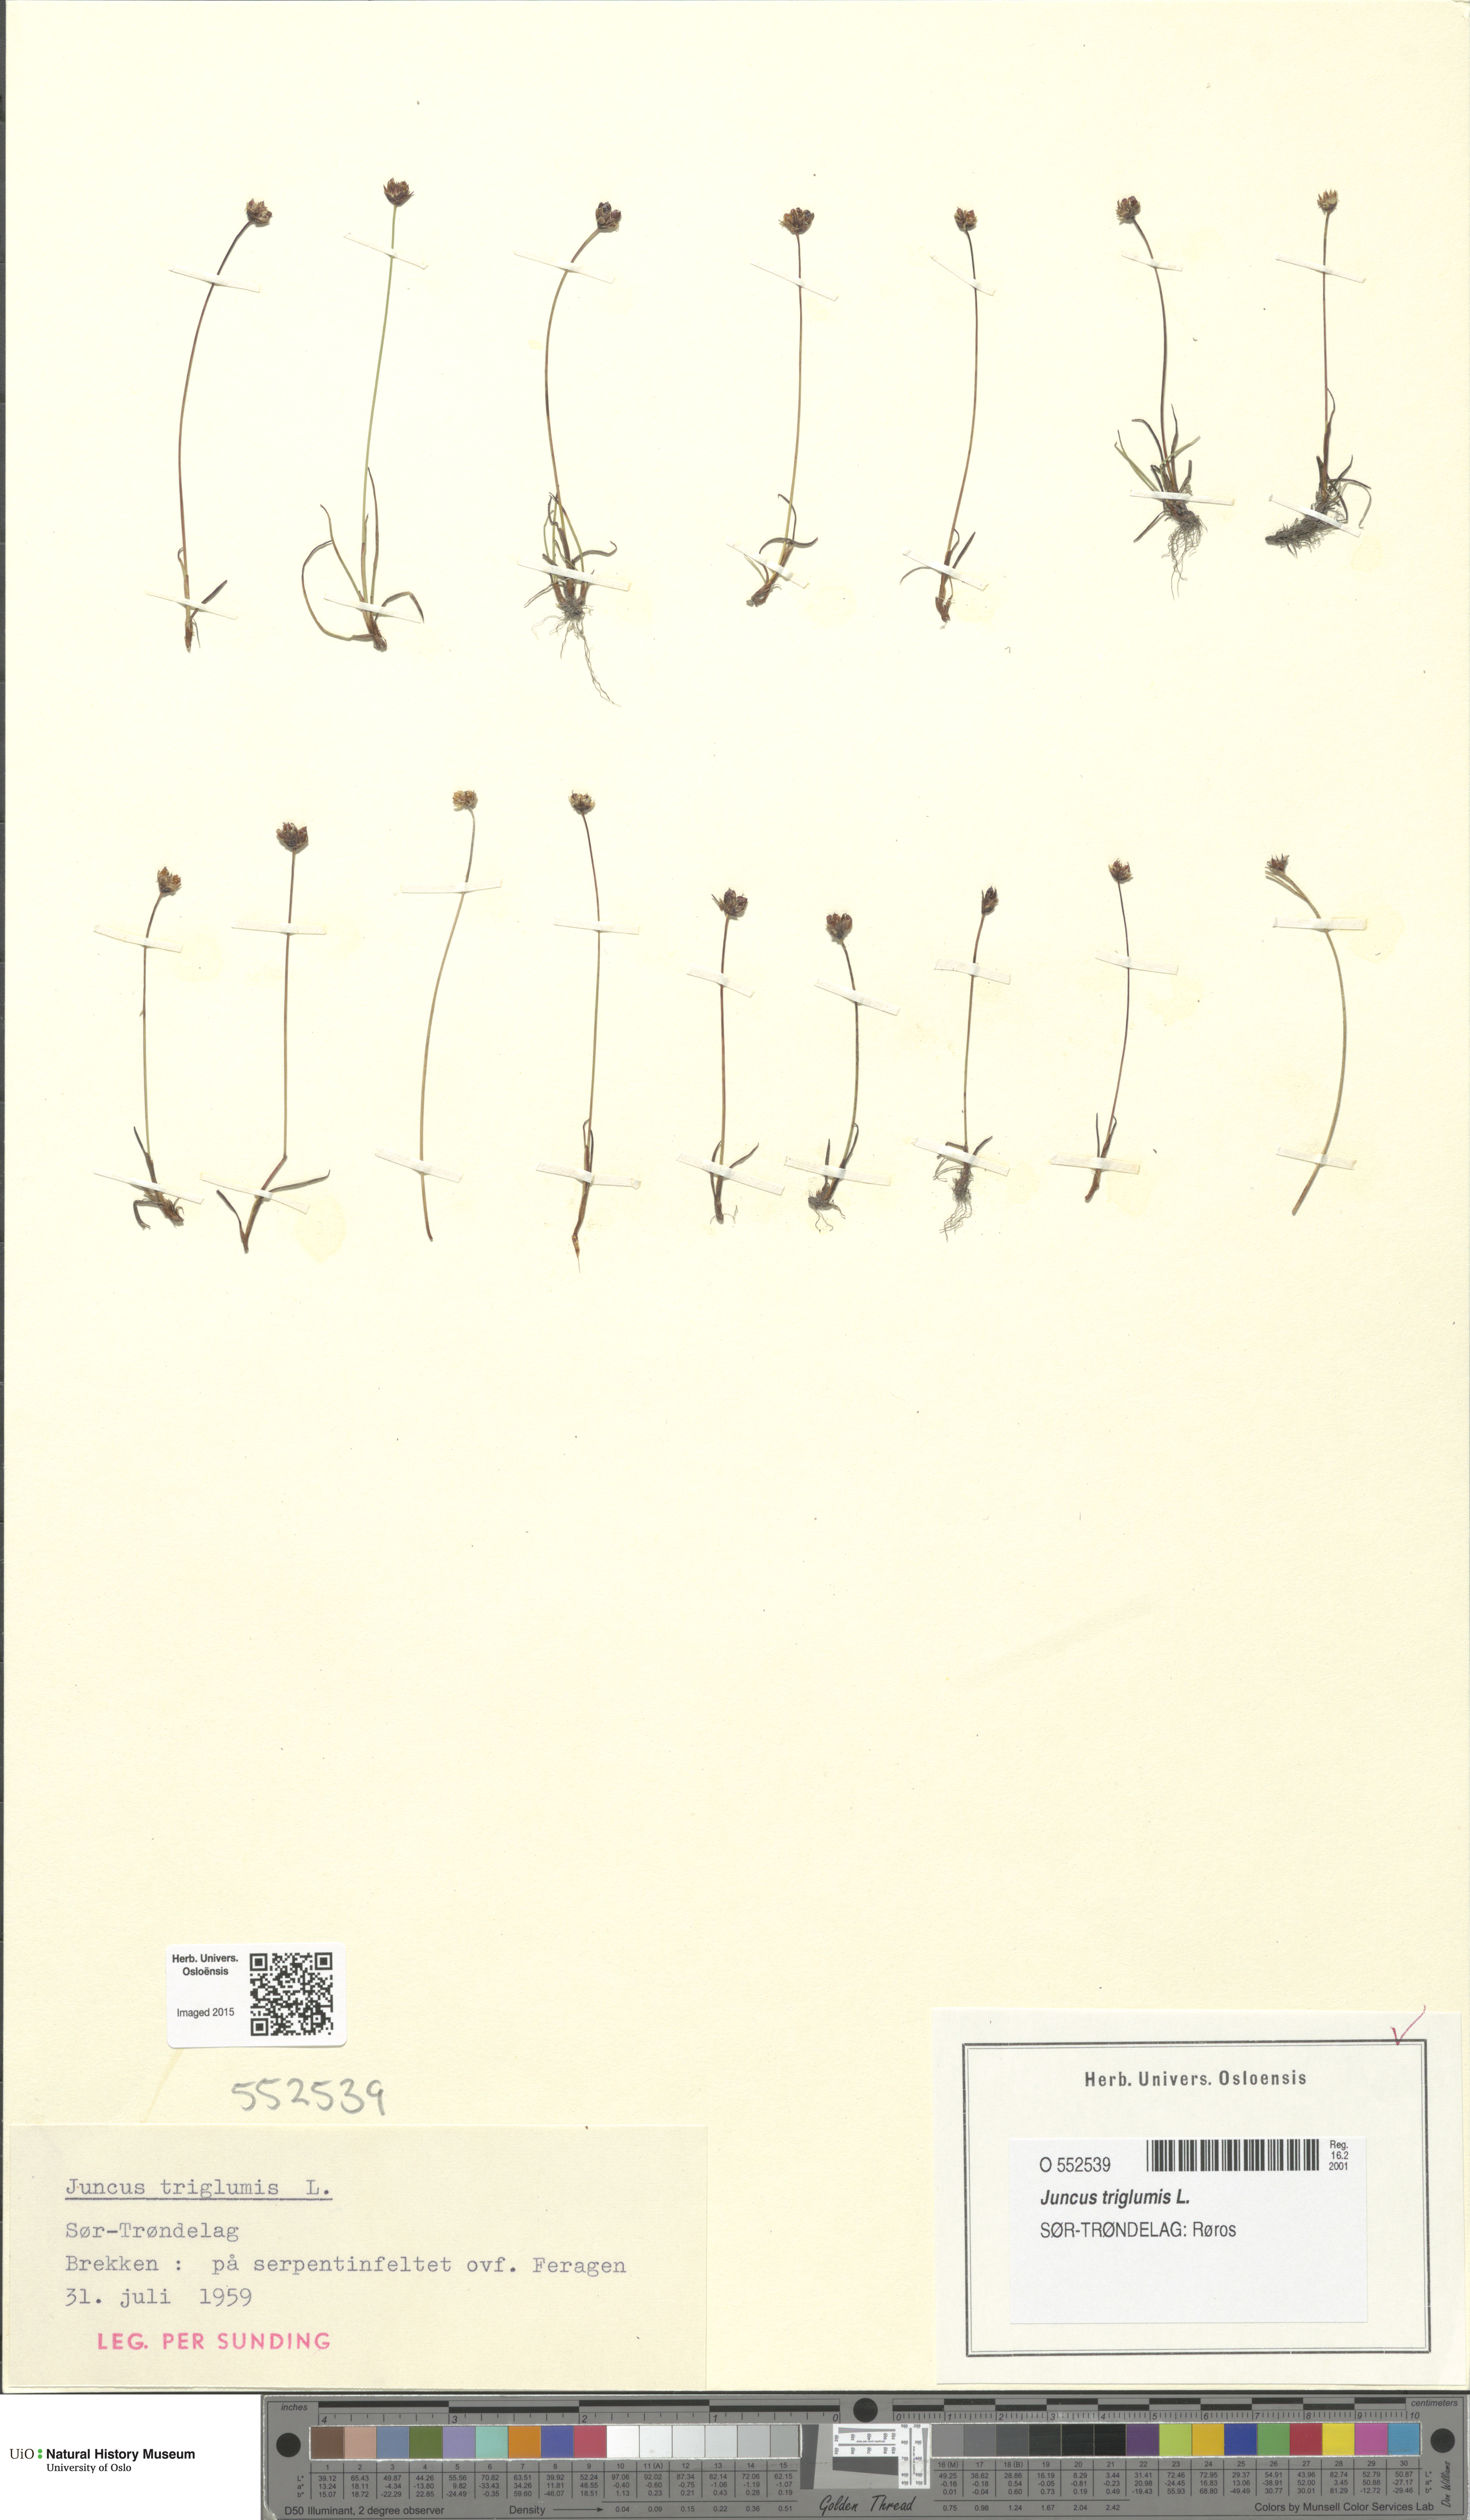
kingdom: Plantae
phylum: Tracheophyta
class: Liliopsida
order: Poales
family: Juncaceae
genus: Juncus
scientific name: Juncus triglumis
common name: Three-flowered rush
